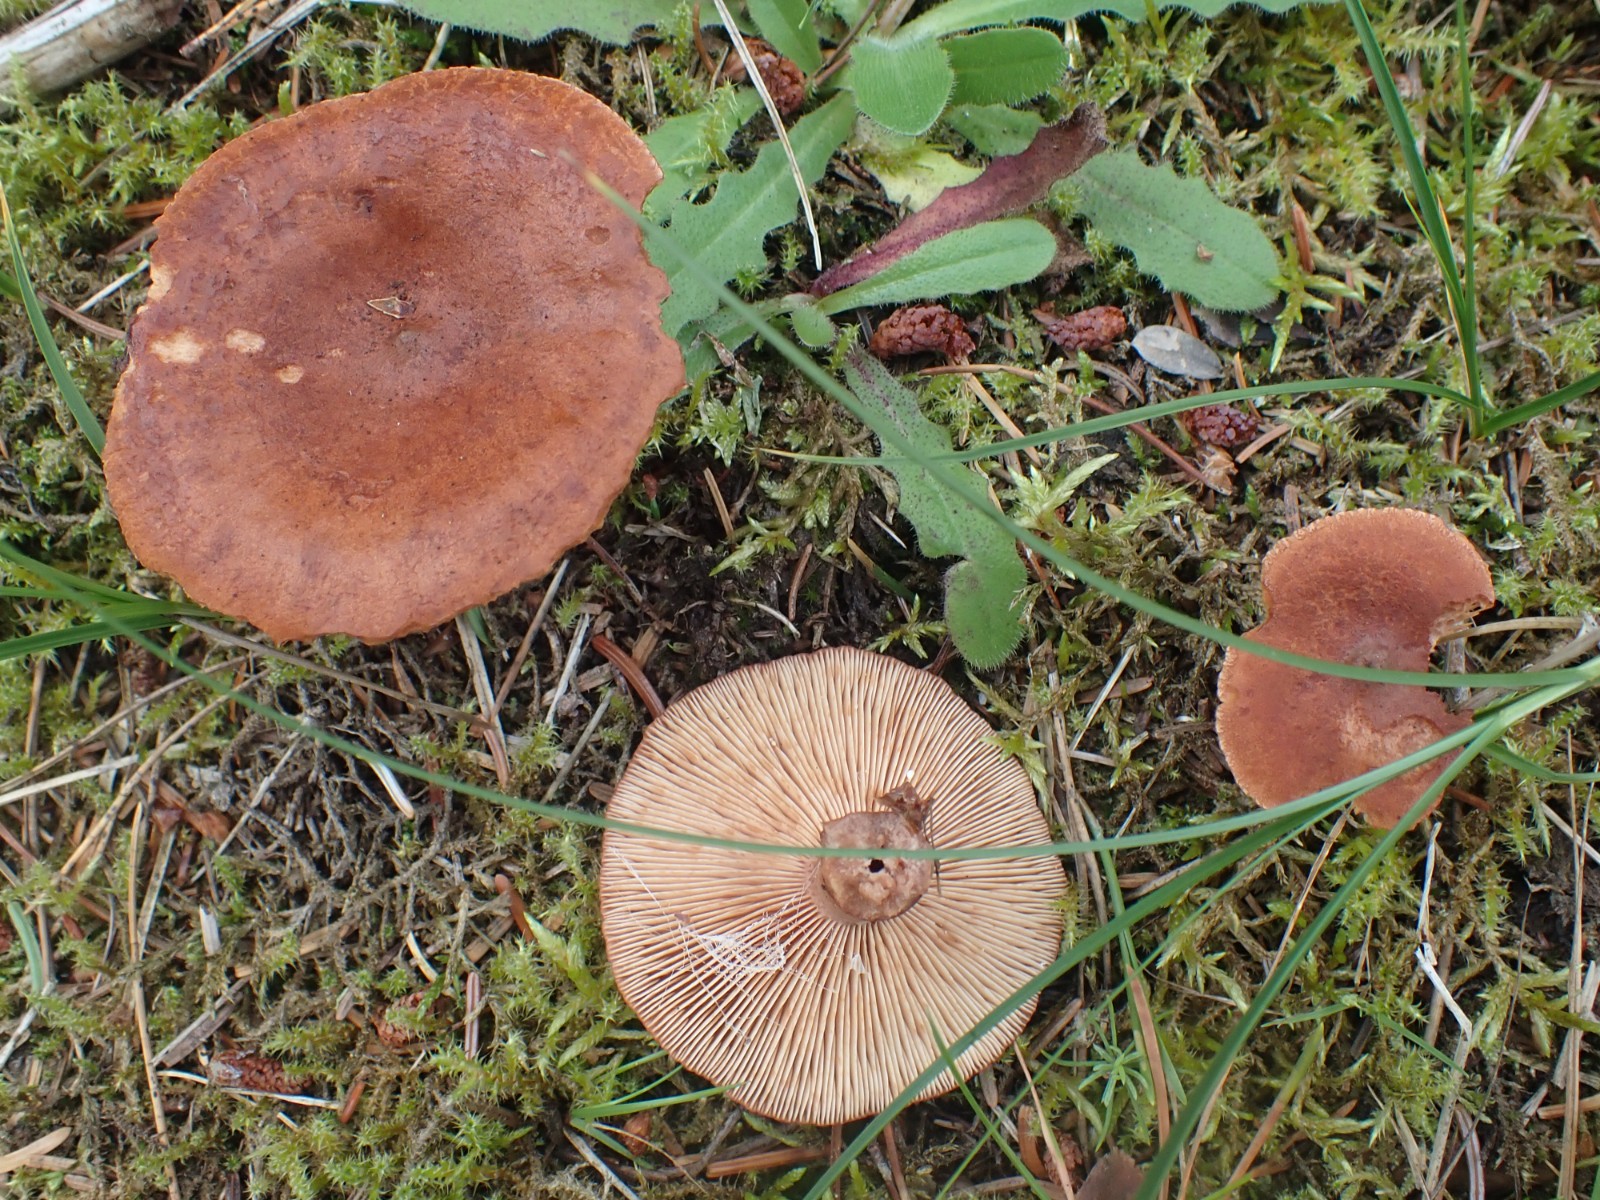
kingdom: Fungi
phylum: Basidiomycota
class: Agaricomycetes
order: Russulales
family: Russulaceae
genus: Lactarius
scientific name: Lactarius rufus
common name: rødbrun mælkehat
